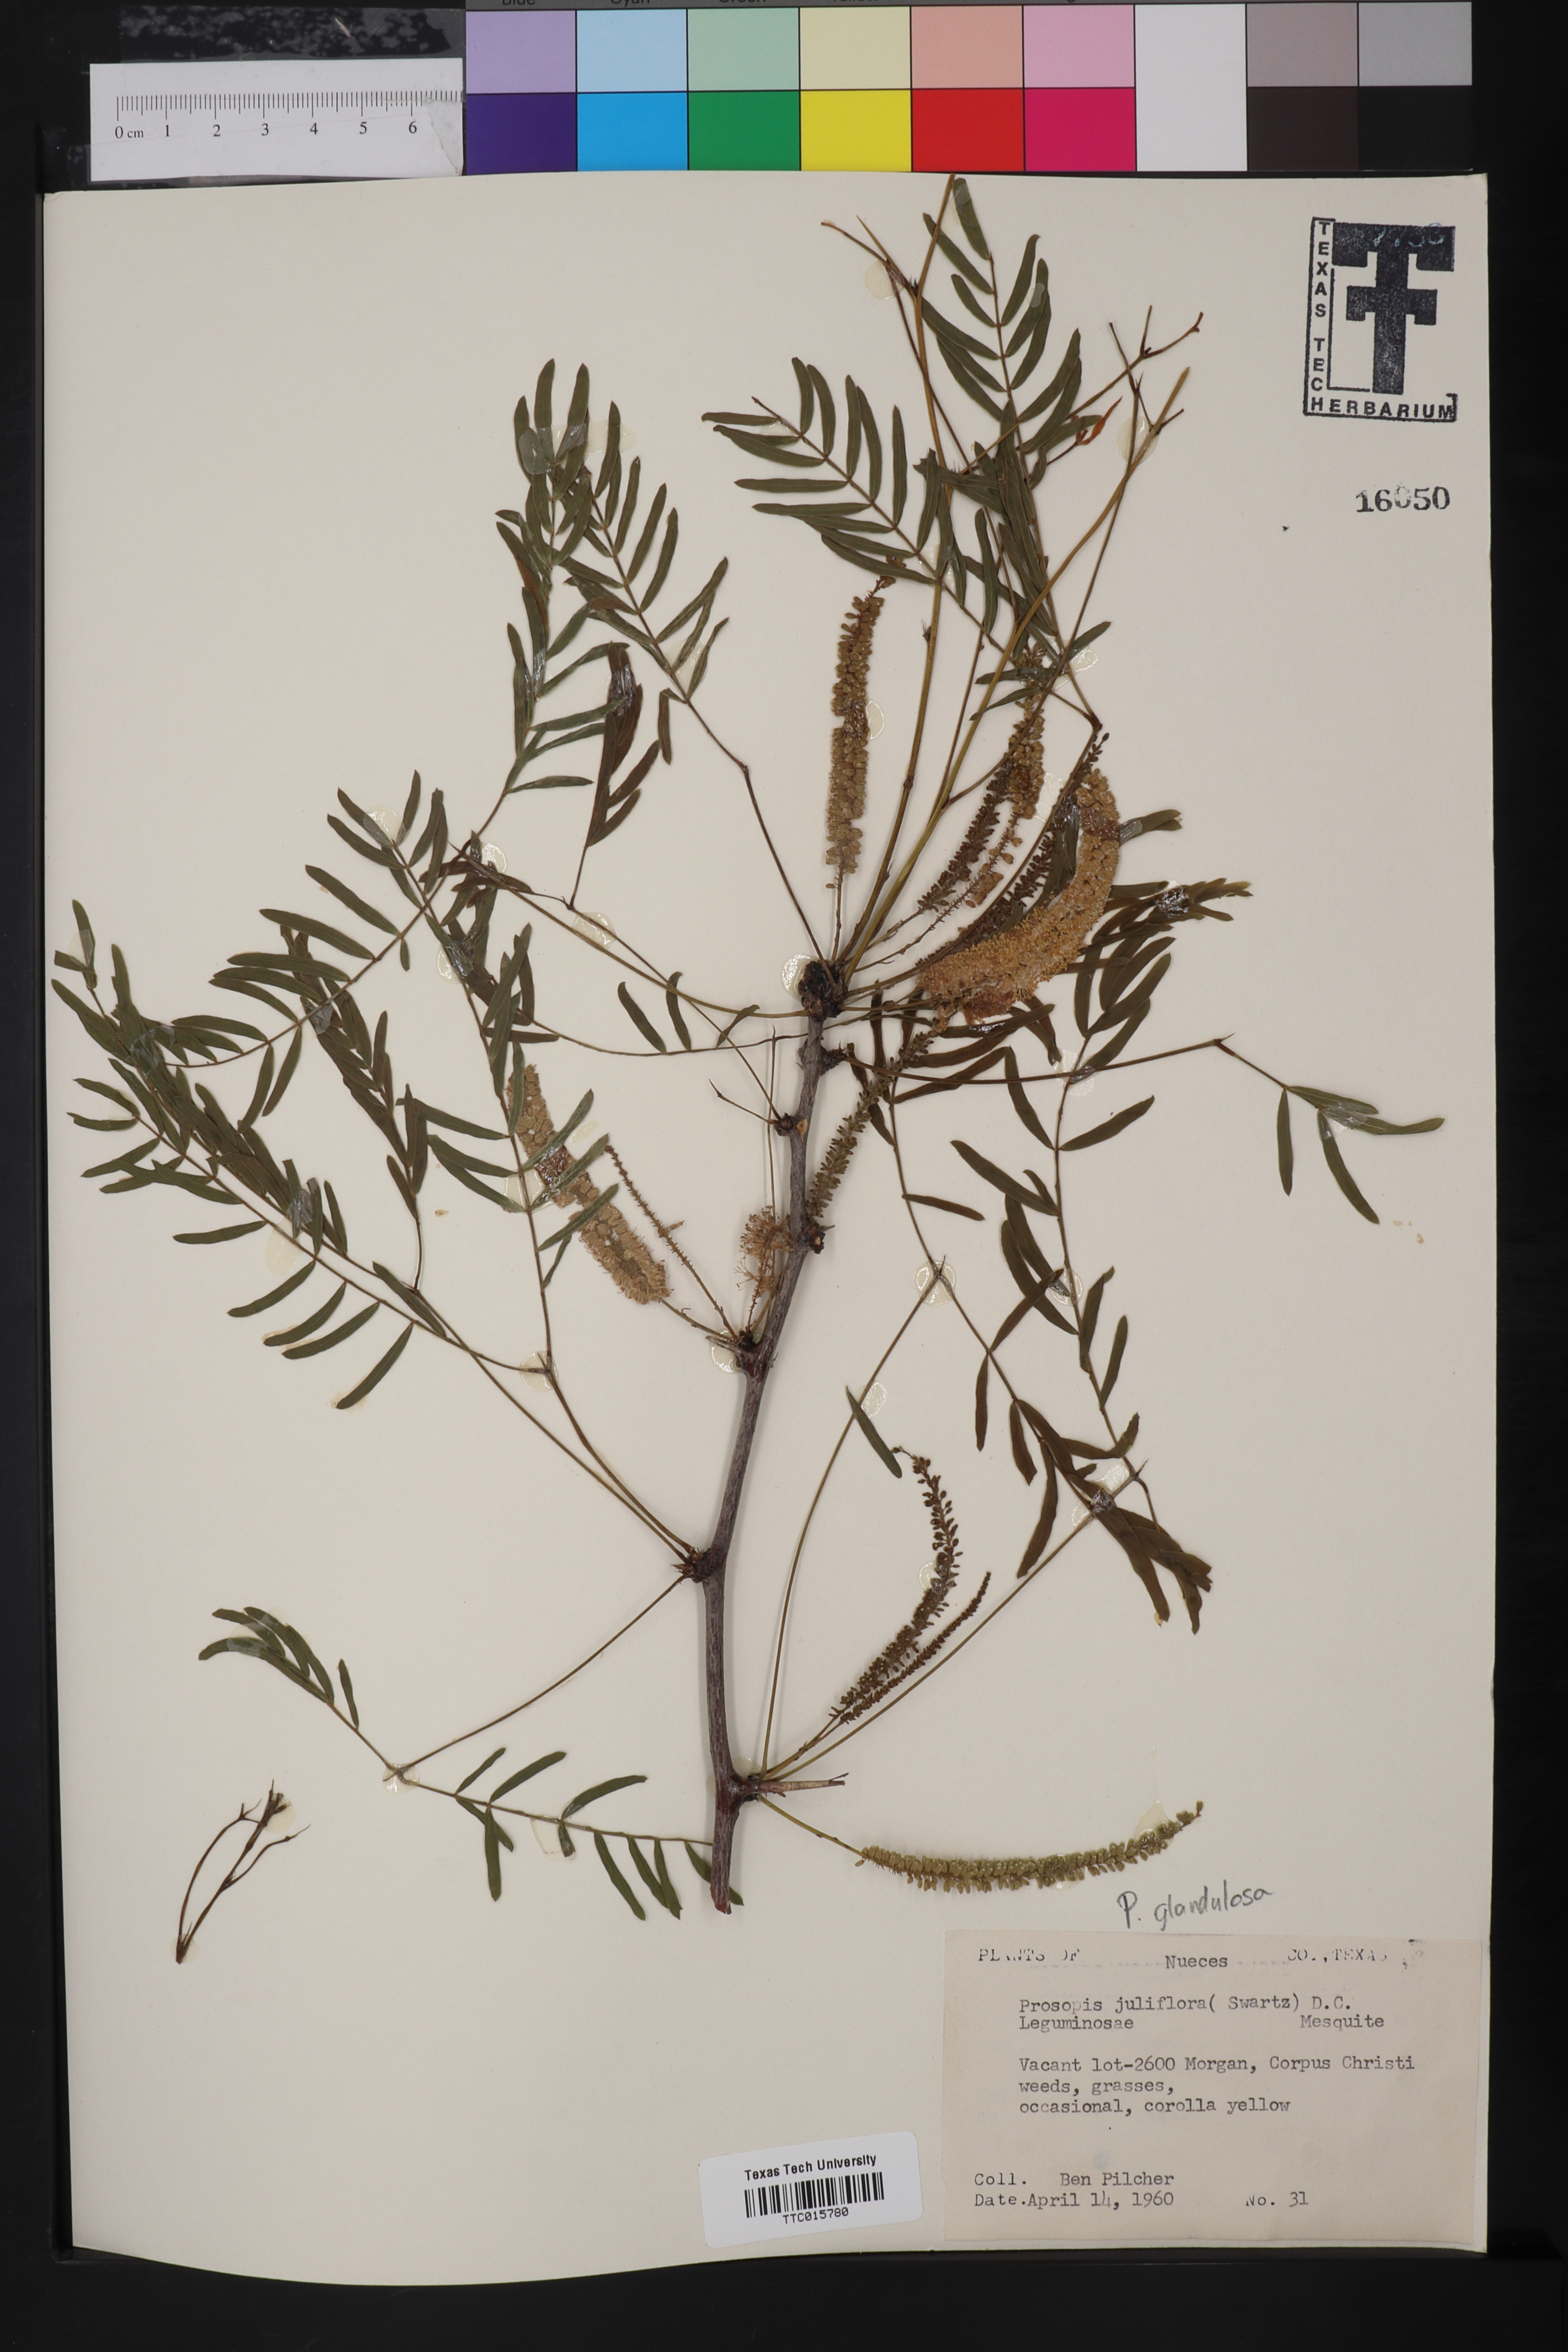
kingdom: Plantae
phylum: Tracheophyta
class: Magnoliopsida
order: Fabales
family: Fabaceae
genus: Prosopis
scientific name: Prosopis glandulosa
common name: Honey mesquite
